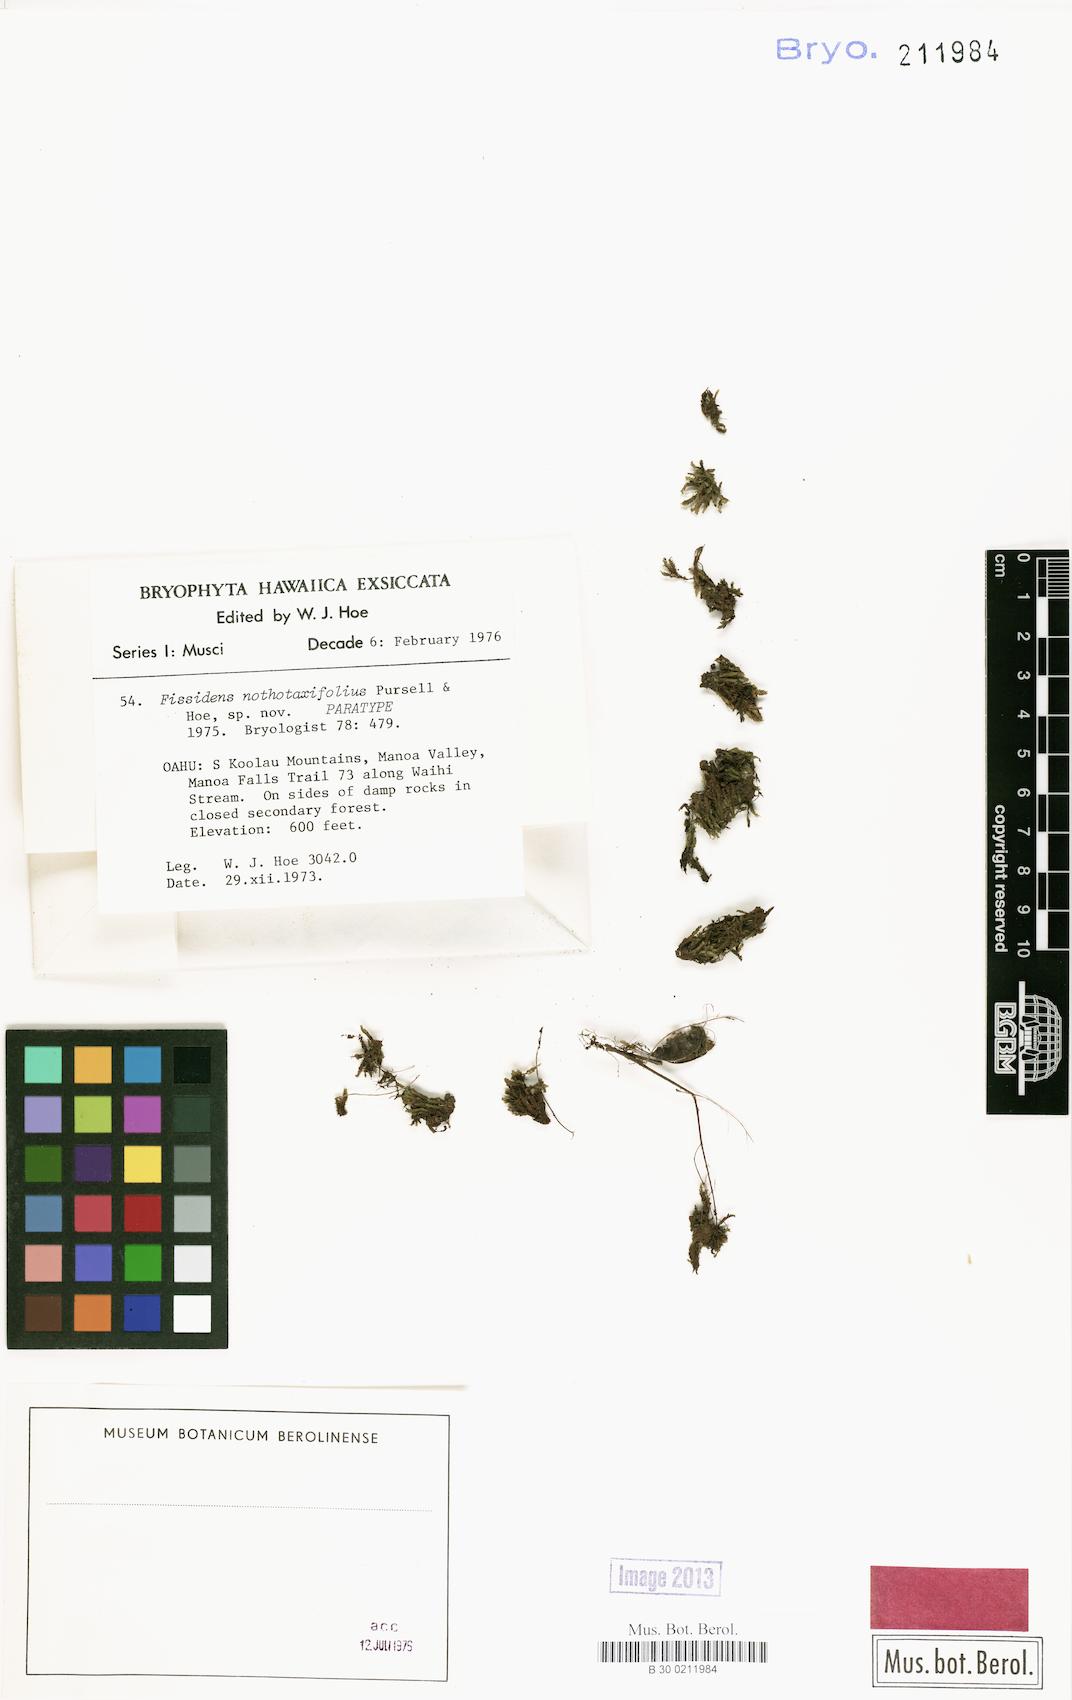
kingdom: Plantae
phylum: Bryophyta
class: Bryopsida
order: Dicranales
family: Fissidentaceae
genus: Fissidens
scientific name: Fissidens nothotaxifolius
